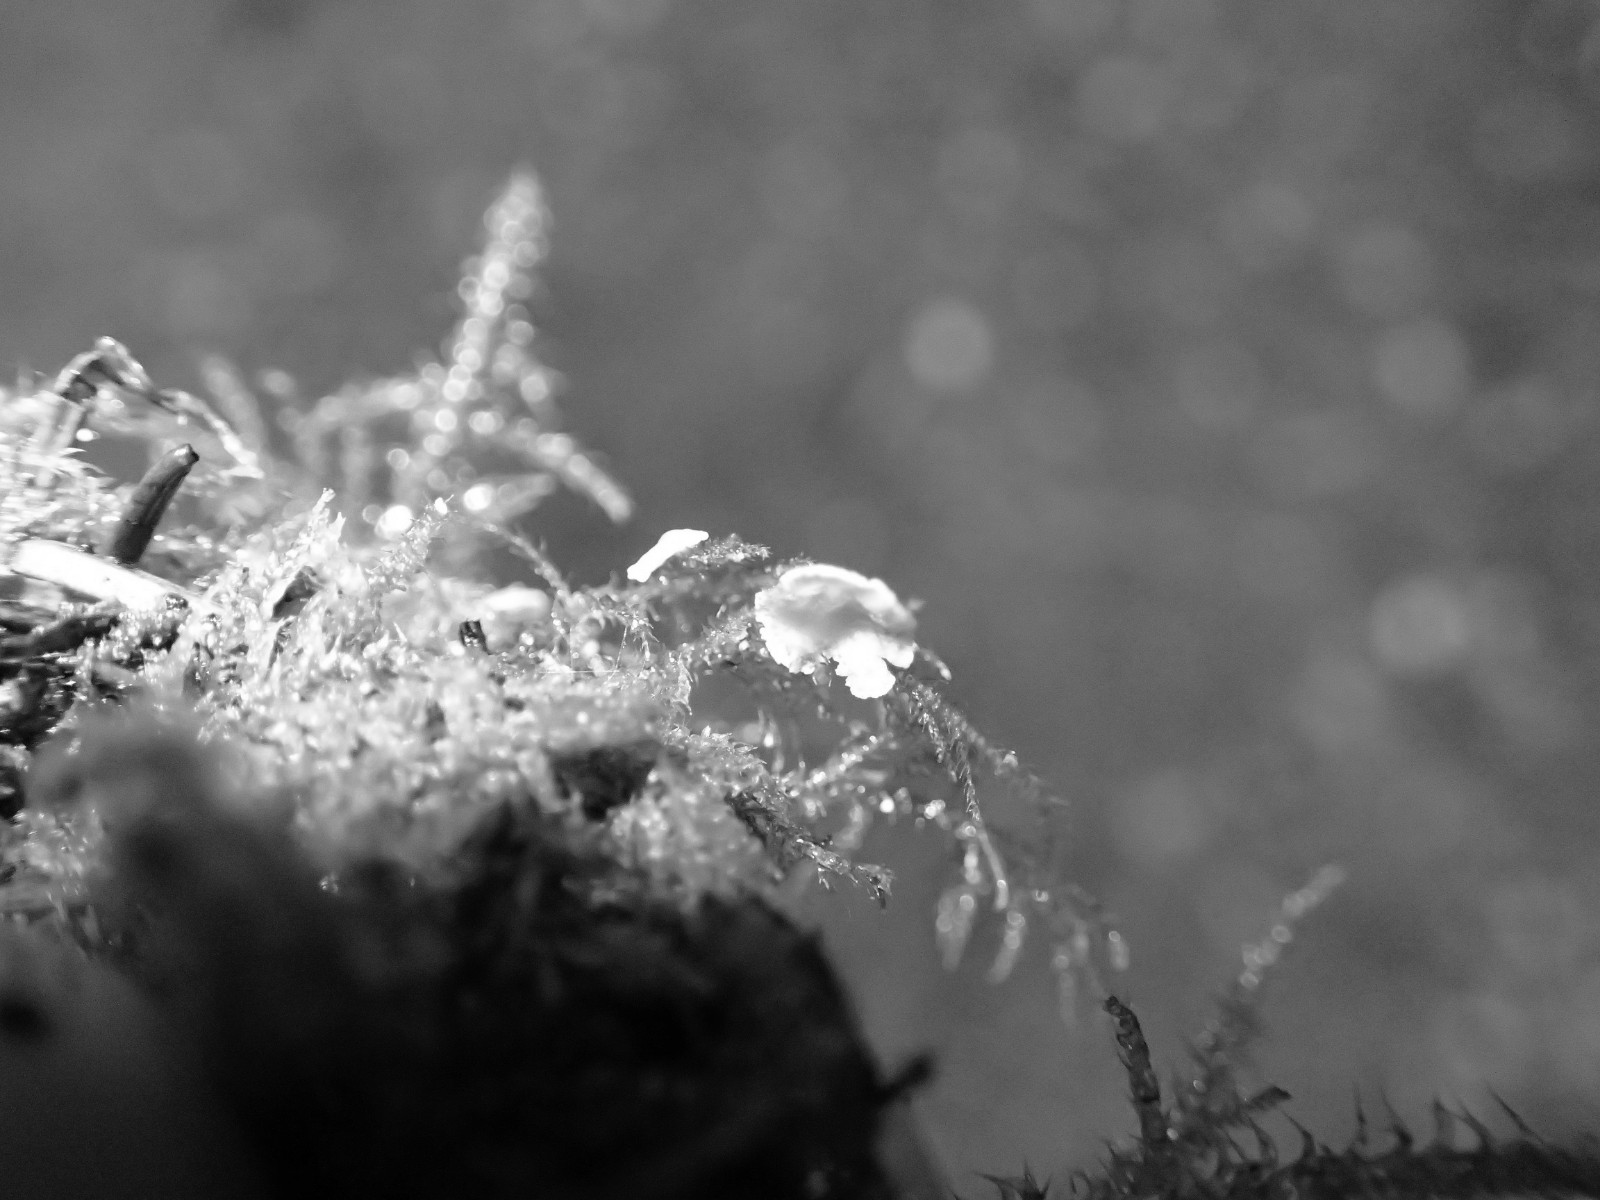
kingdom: Fungi
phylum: Basidiomycota
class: Agaricomycetes
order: Agaricales
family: Hygrophoraceae
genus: Arrhenia
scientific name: Arrhenia retiruga
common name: lille fontænehat
